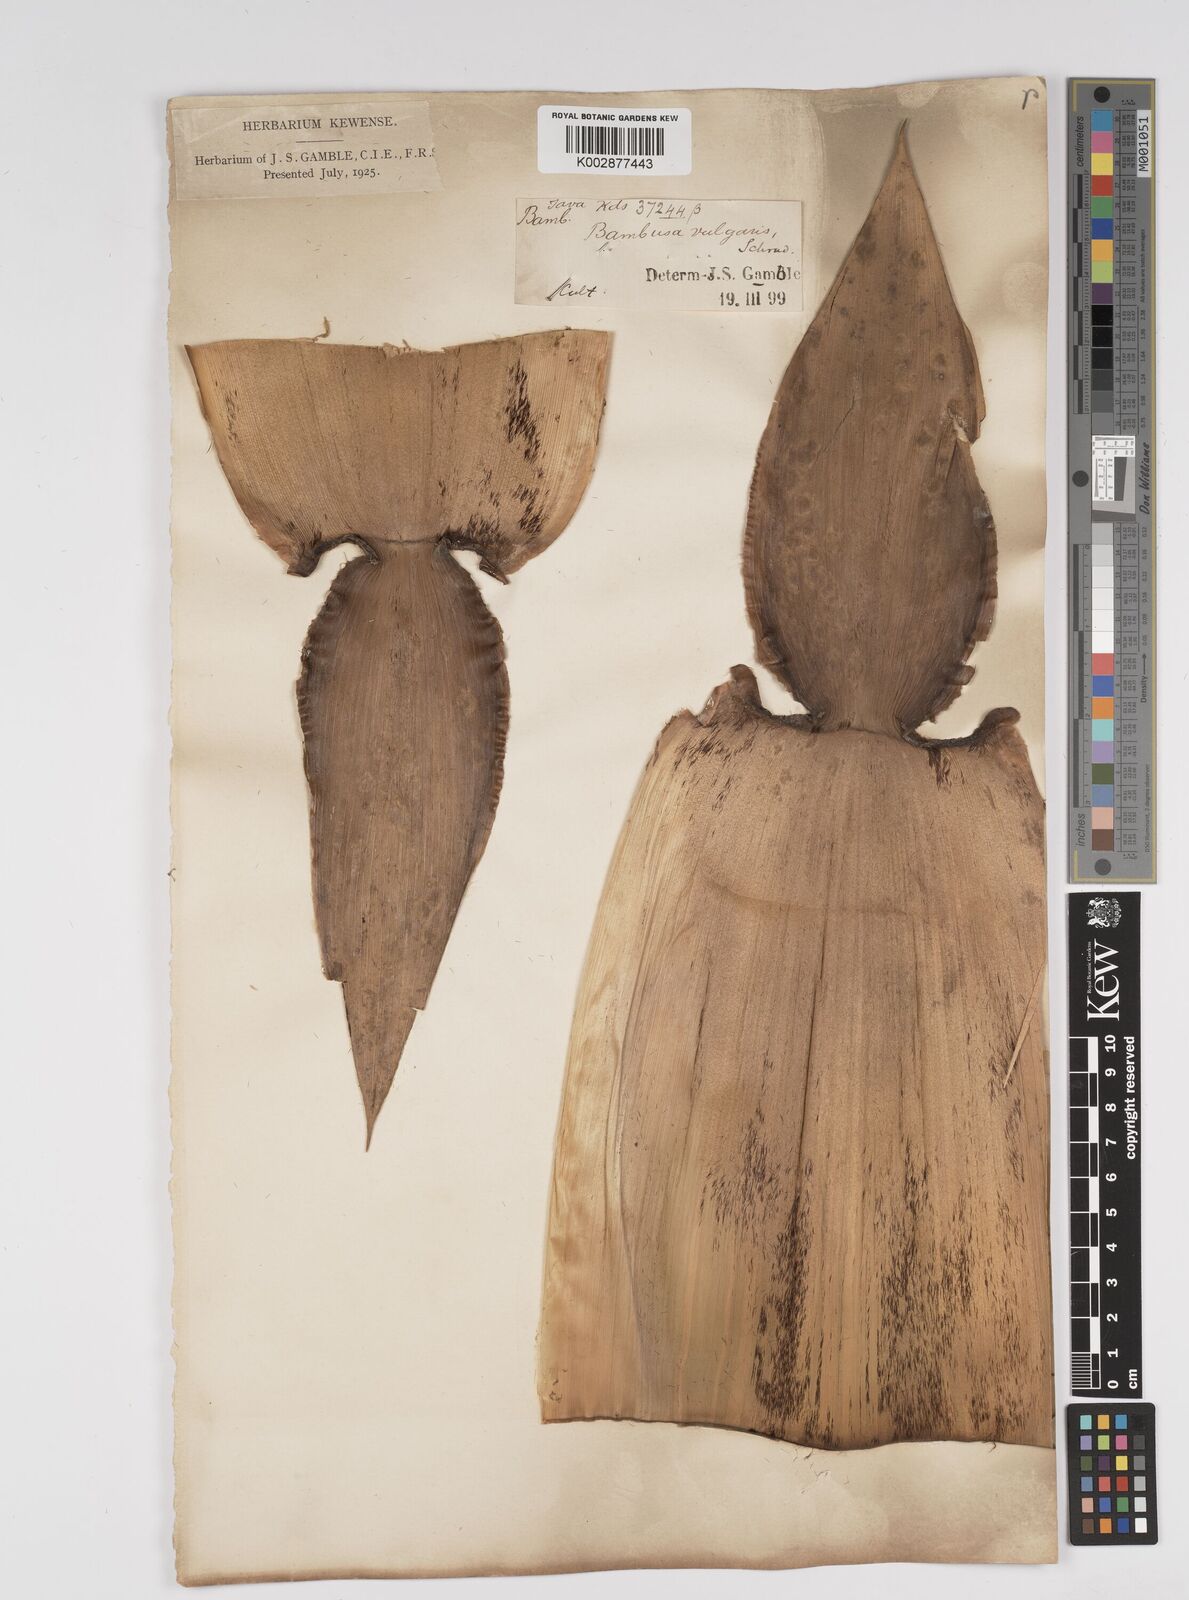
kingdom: Plantae
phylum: Tracheophyta
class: Liliopsida
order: Poales
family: Poaceae
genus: Bambusa
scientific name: Bambusa vulgaris
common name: Common bamboo
